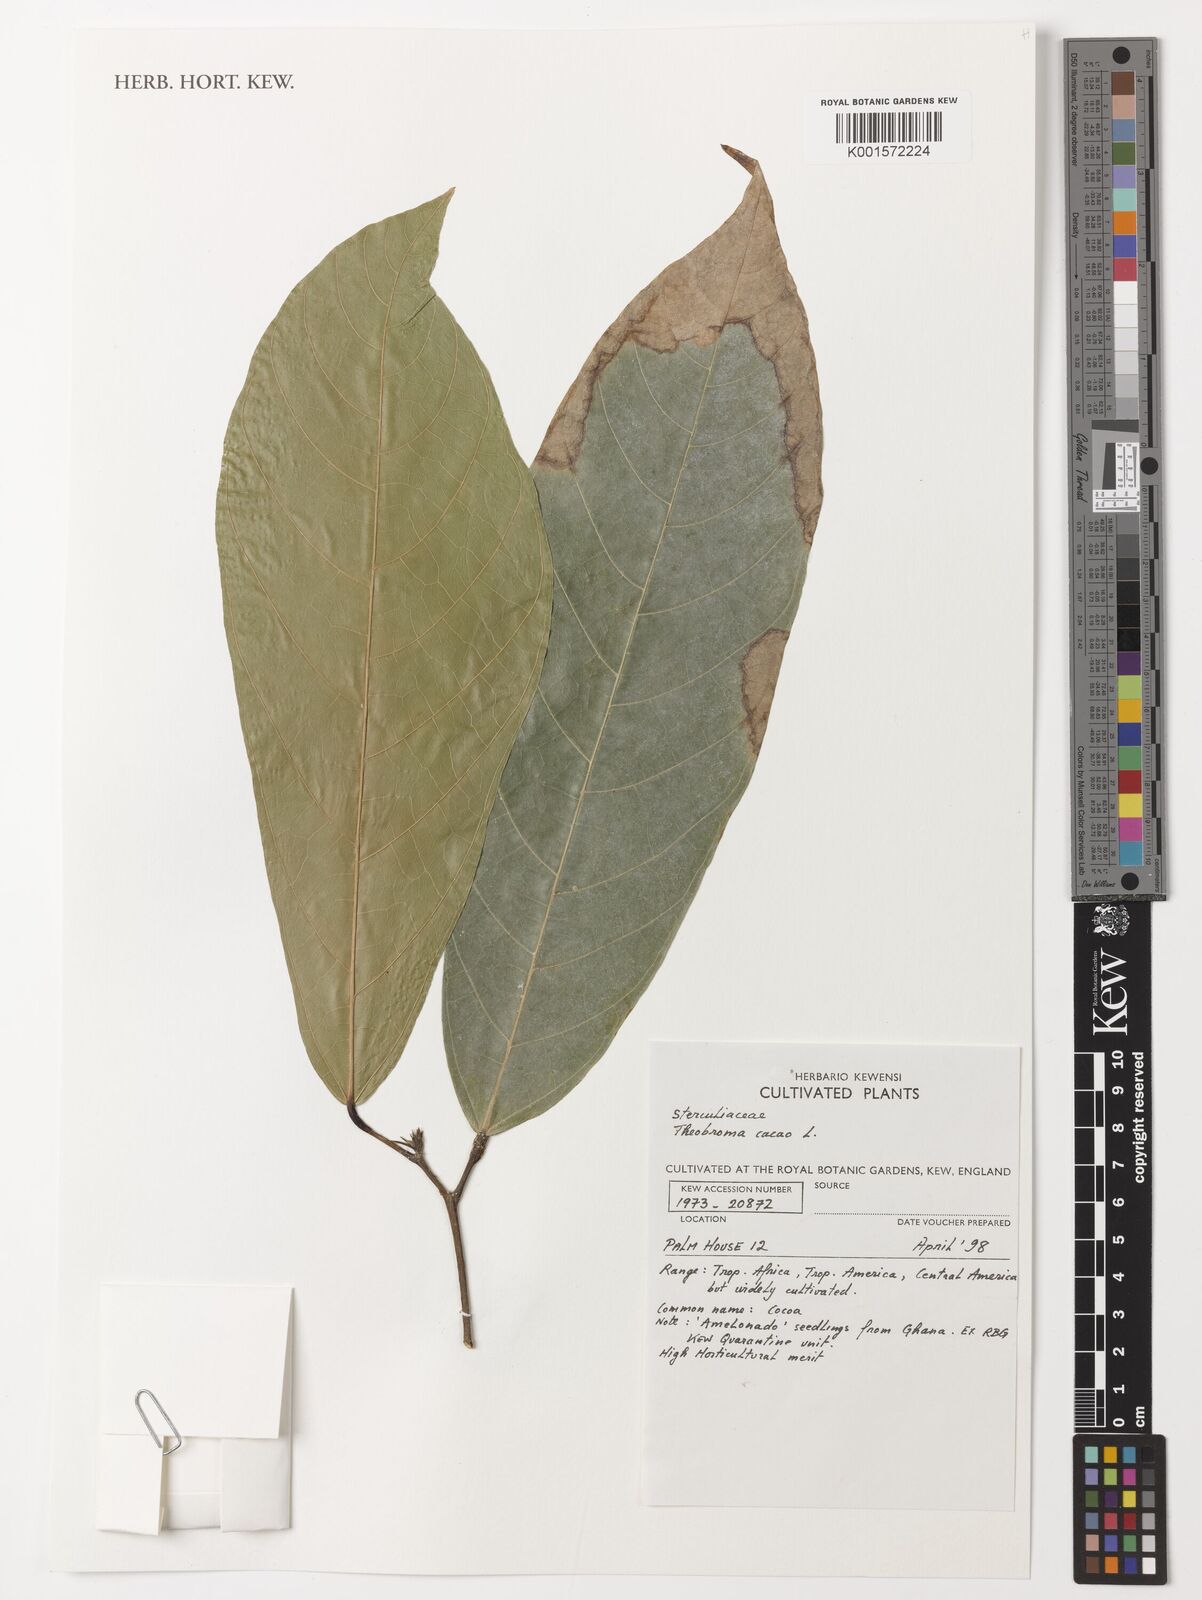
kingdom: Plantae
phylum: Tracheophyta
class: Magnoliopsida
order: Malvales
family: Malvaceae
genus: Theobroma
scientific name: Theobroma cacao
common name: Cocoa
